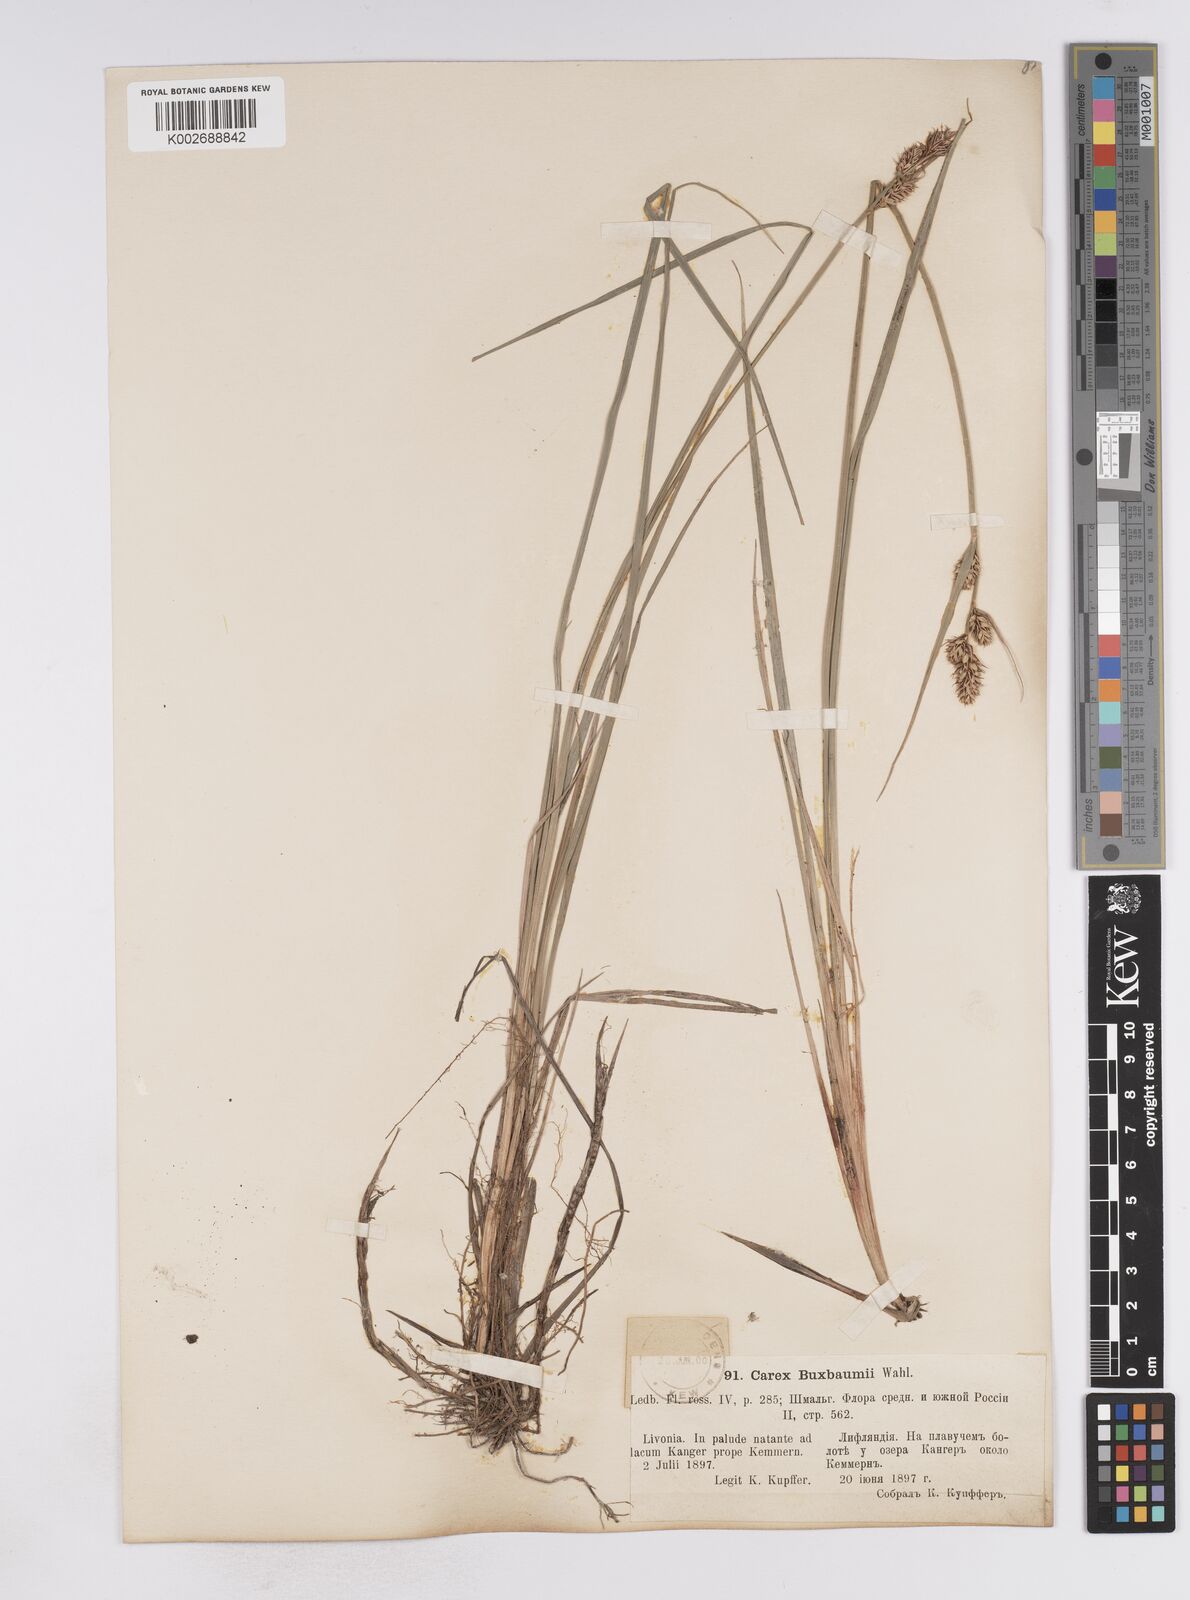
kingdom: Plantae
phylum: Tracheophyta
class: Liliopsida
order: Poales
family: Cyperaceae
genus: Carex
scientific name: Carex buxbaumii
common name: Club sedge
